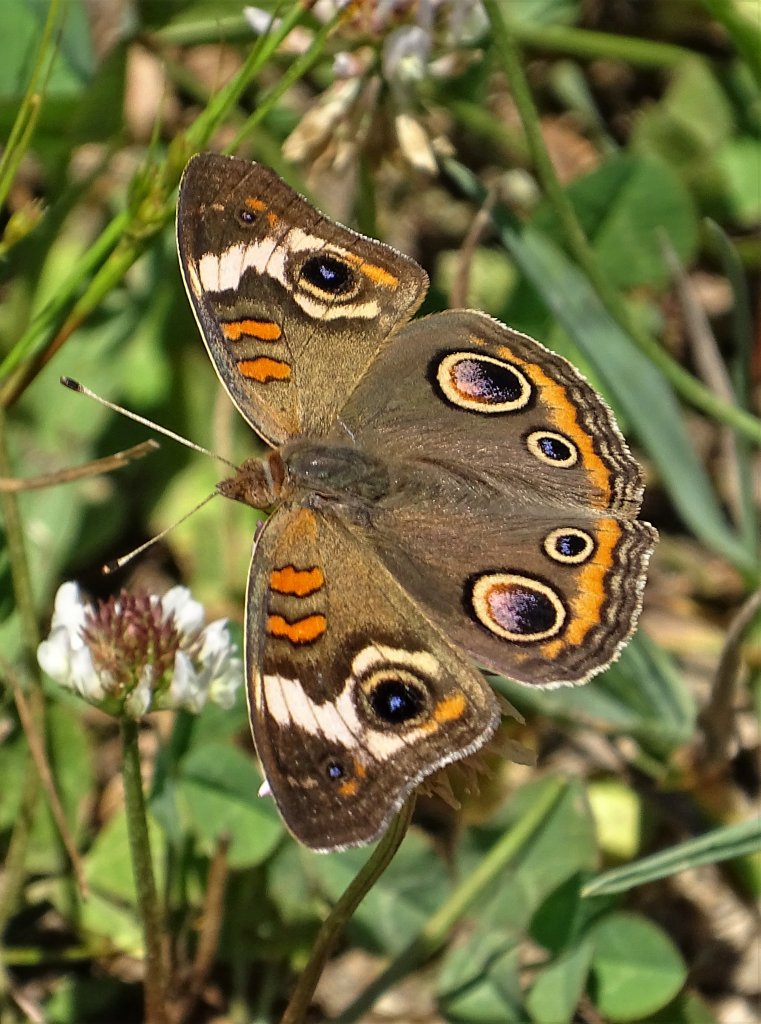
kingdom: Animalia
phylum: Arthropoda
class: Insecta
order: Lepidoptera
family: Nymphalidae
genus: Junonia
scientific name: Junonia coenia
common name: Common Buckeye
